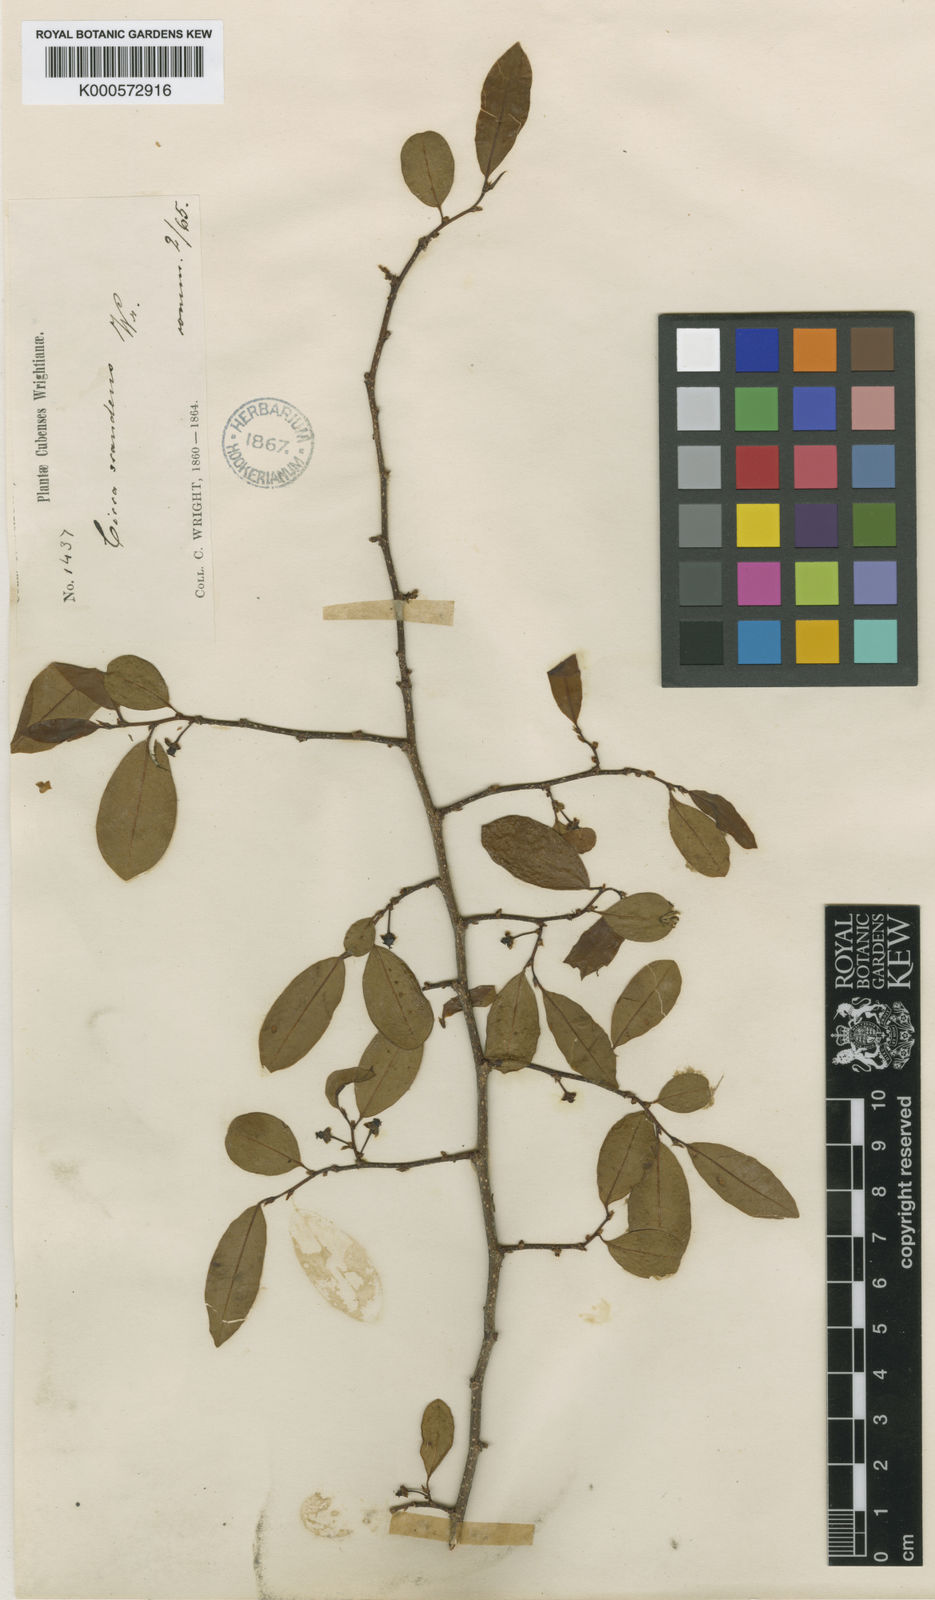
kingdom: Plantae
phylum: Tracheophyta
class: Magnoliopsida
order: Malpighiales
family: Phyllanthaceae
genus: Margaritaria
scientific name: Margaritaria scandens
